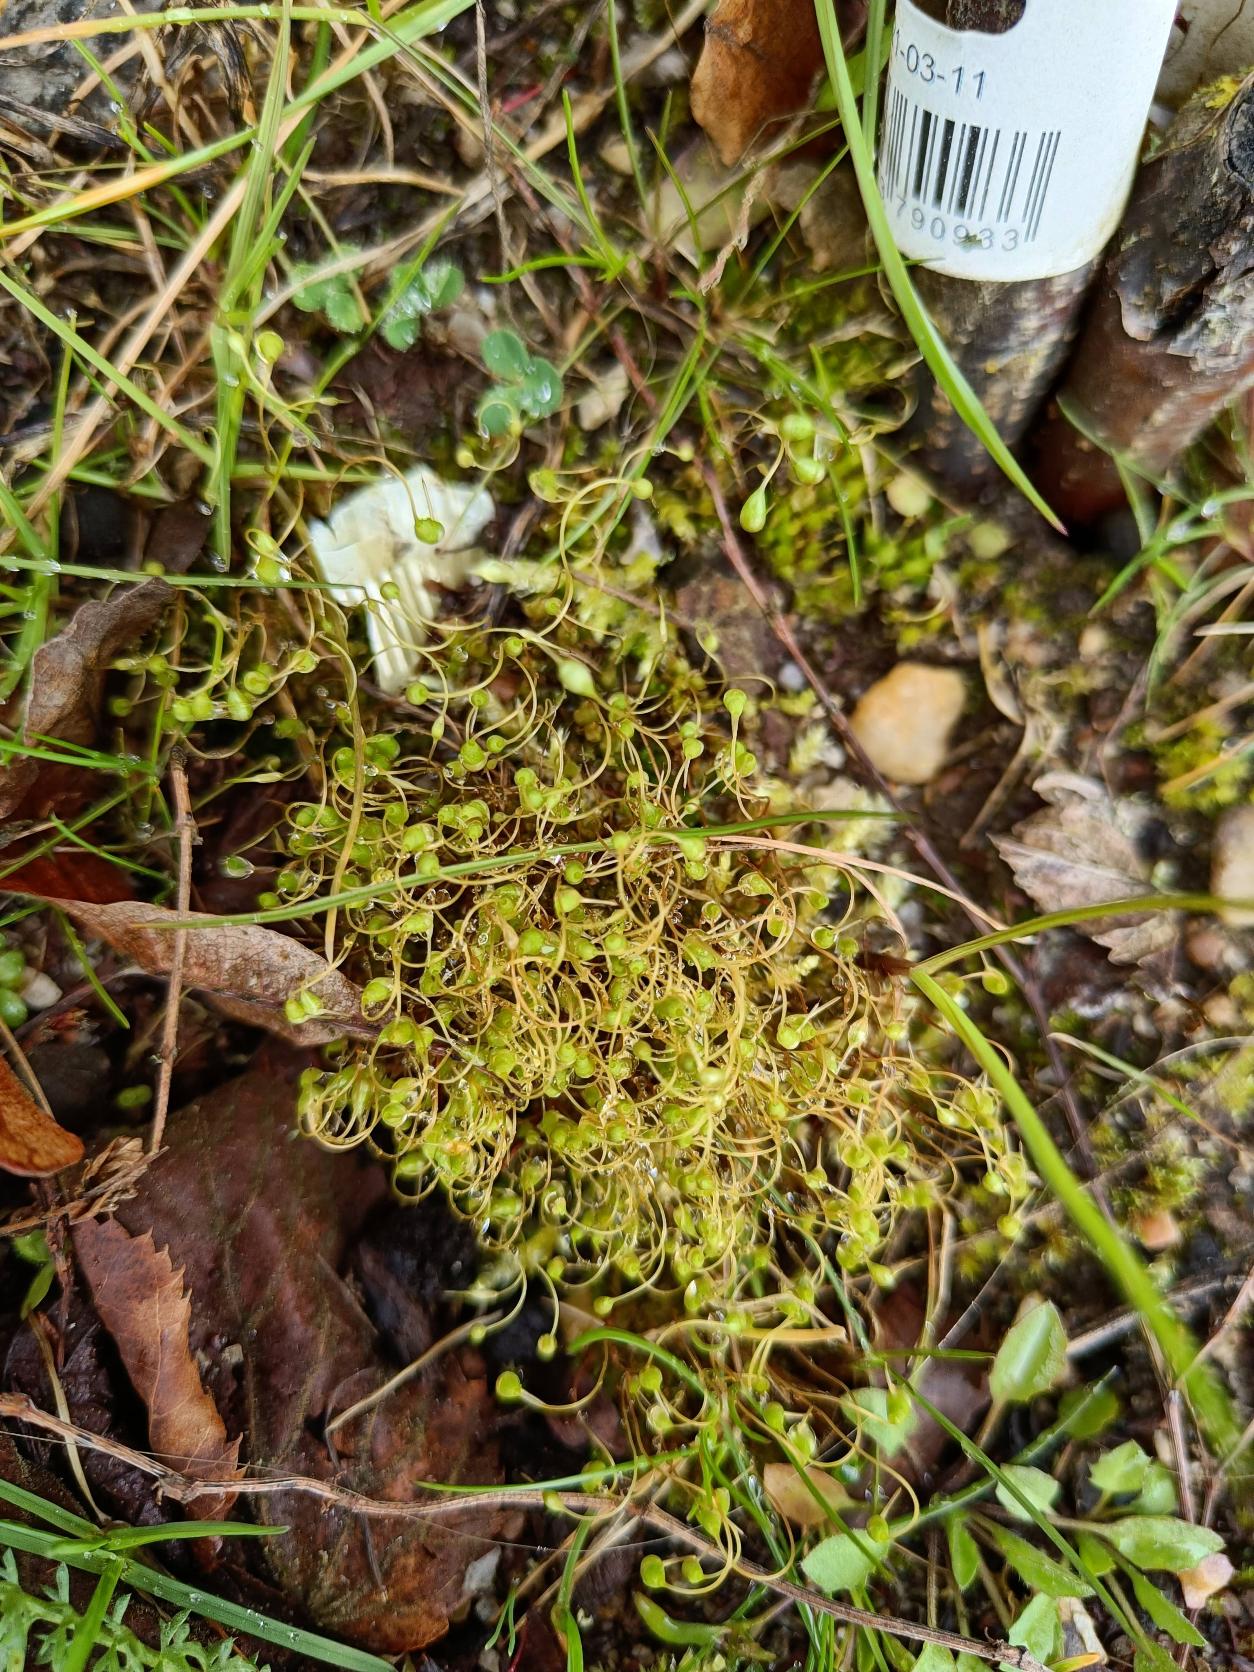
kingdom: Plantae
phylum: Bryophyta
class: Bryopsida
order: Funariales
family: Funariaceae
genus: Funaria
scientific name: Funaria hygrometrica
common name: Almindelig snobørste
